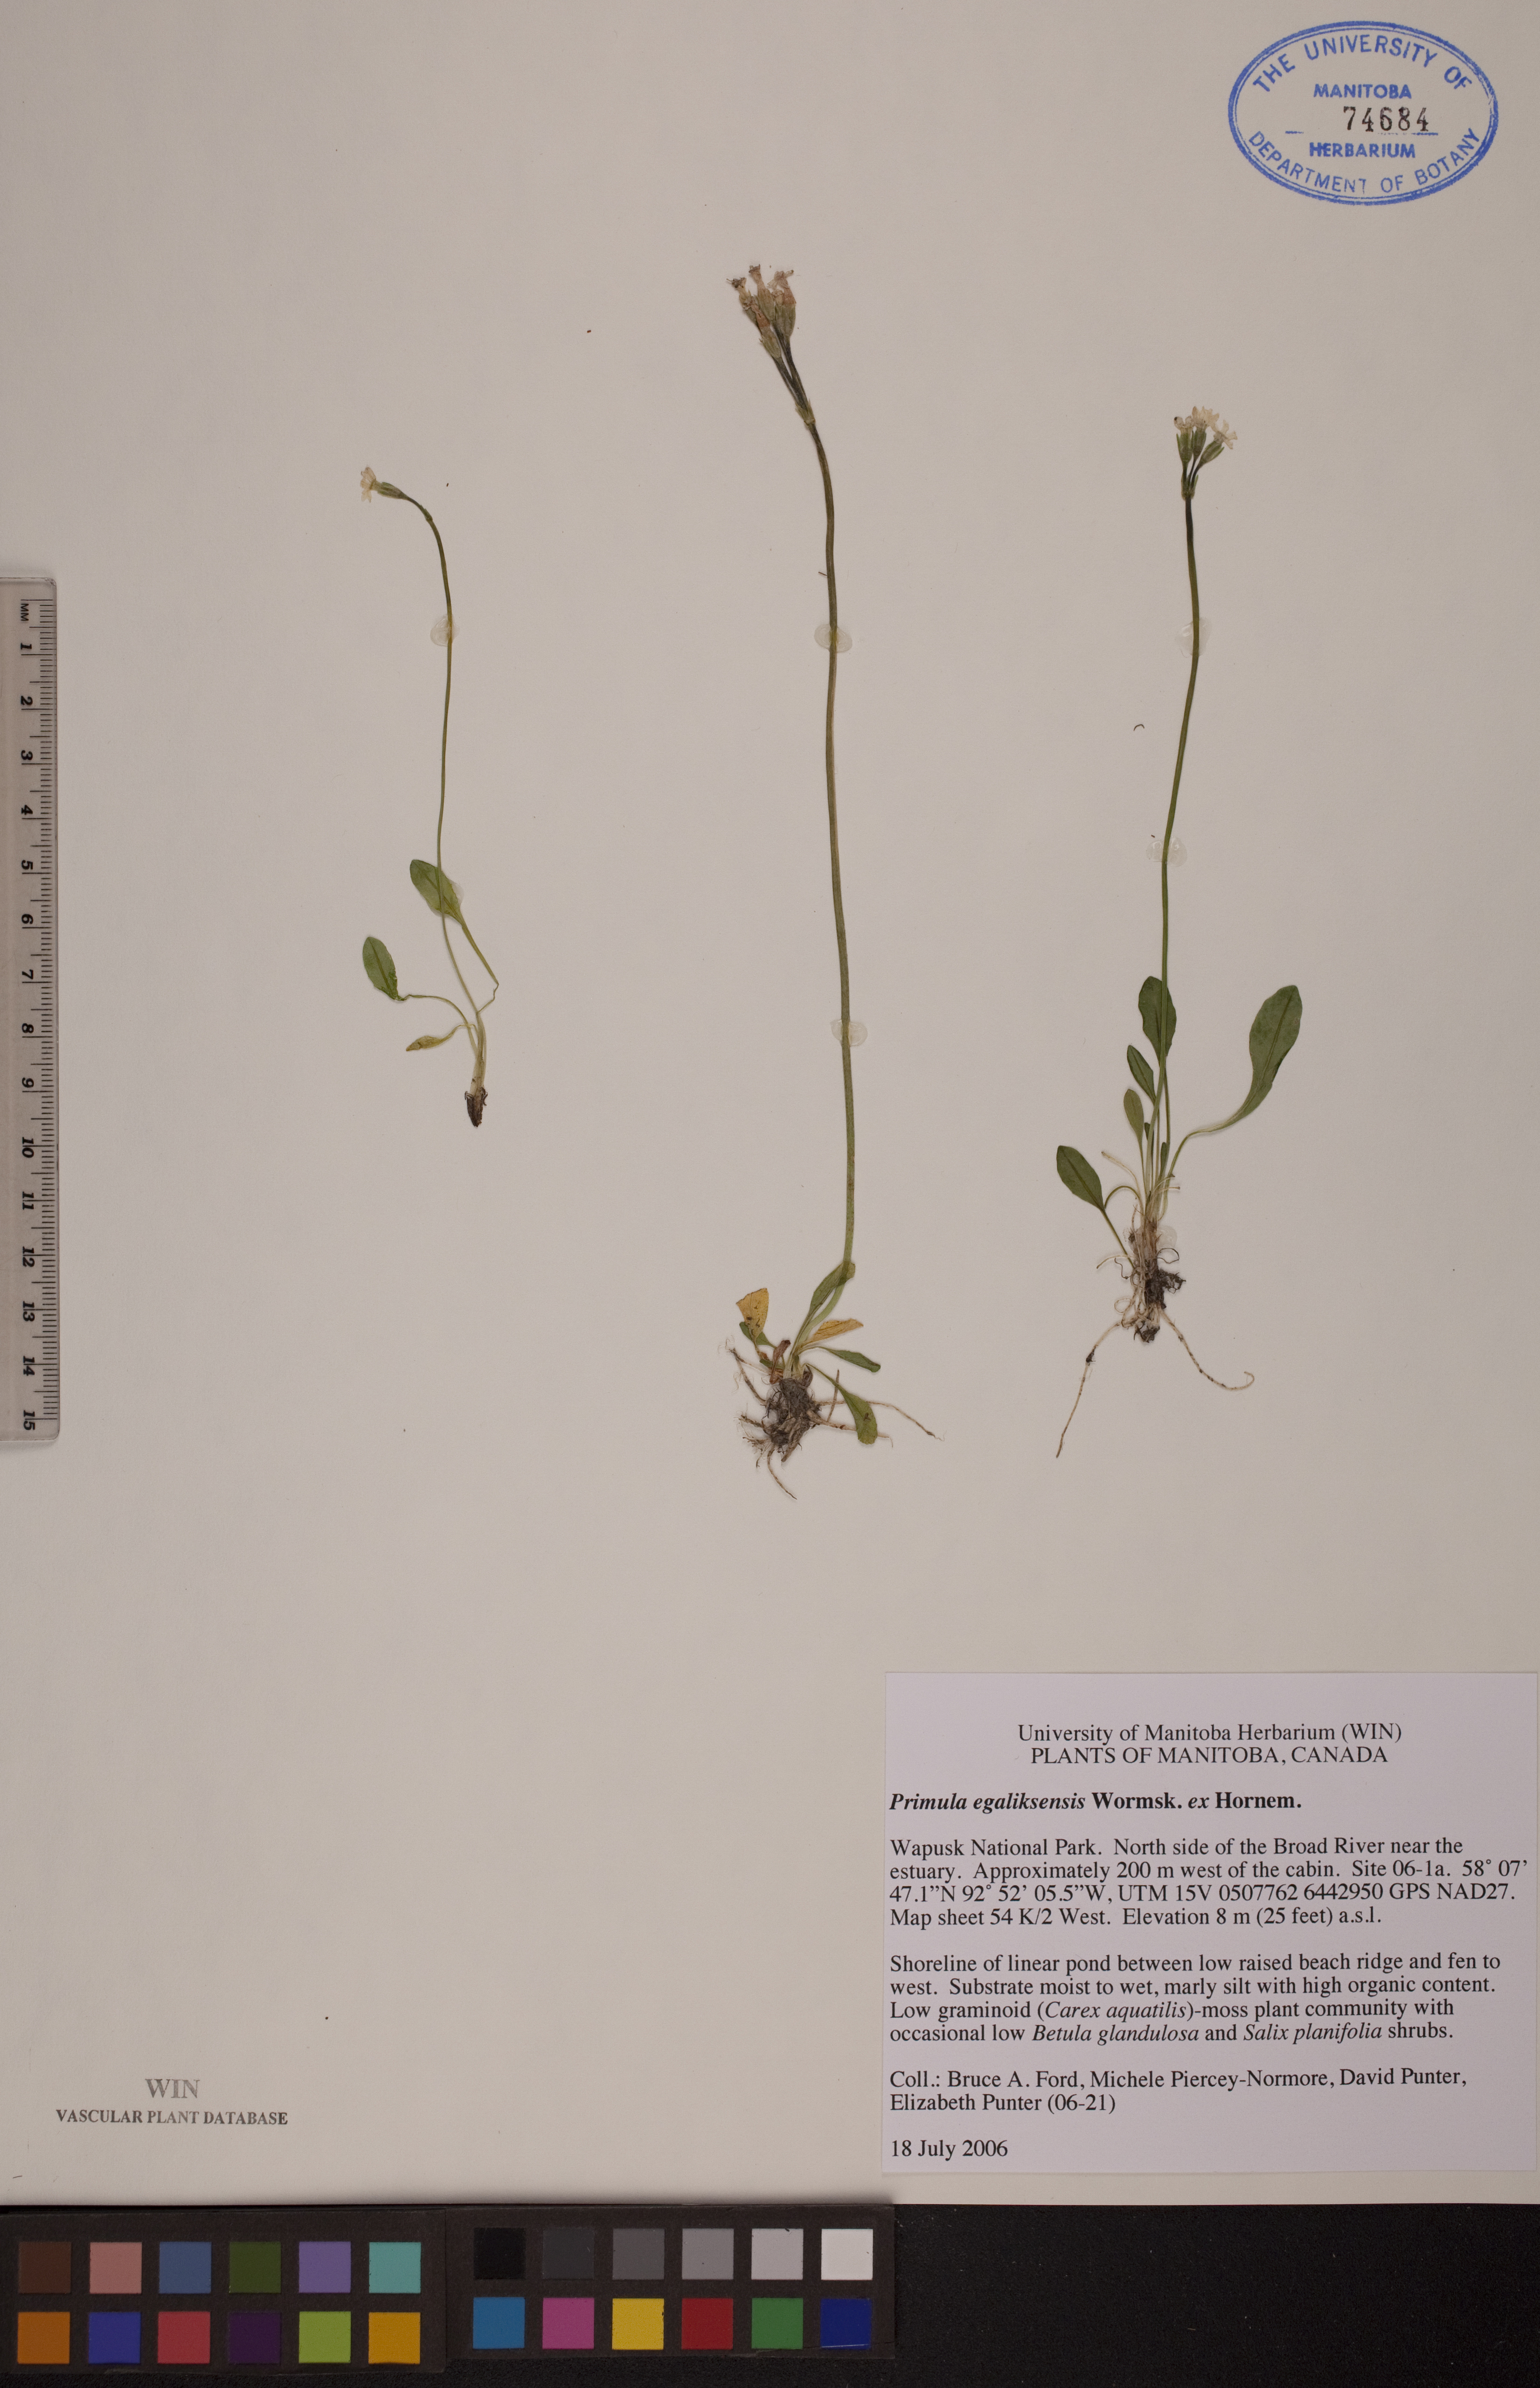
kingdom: Plantae
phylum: Tracheophyta
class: Magnoliopsida
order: Ericales
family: Primulaceae
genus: Primula
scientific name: Primula egaliksensis
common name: Greenland primrose
